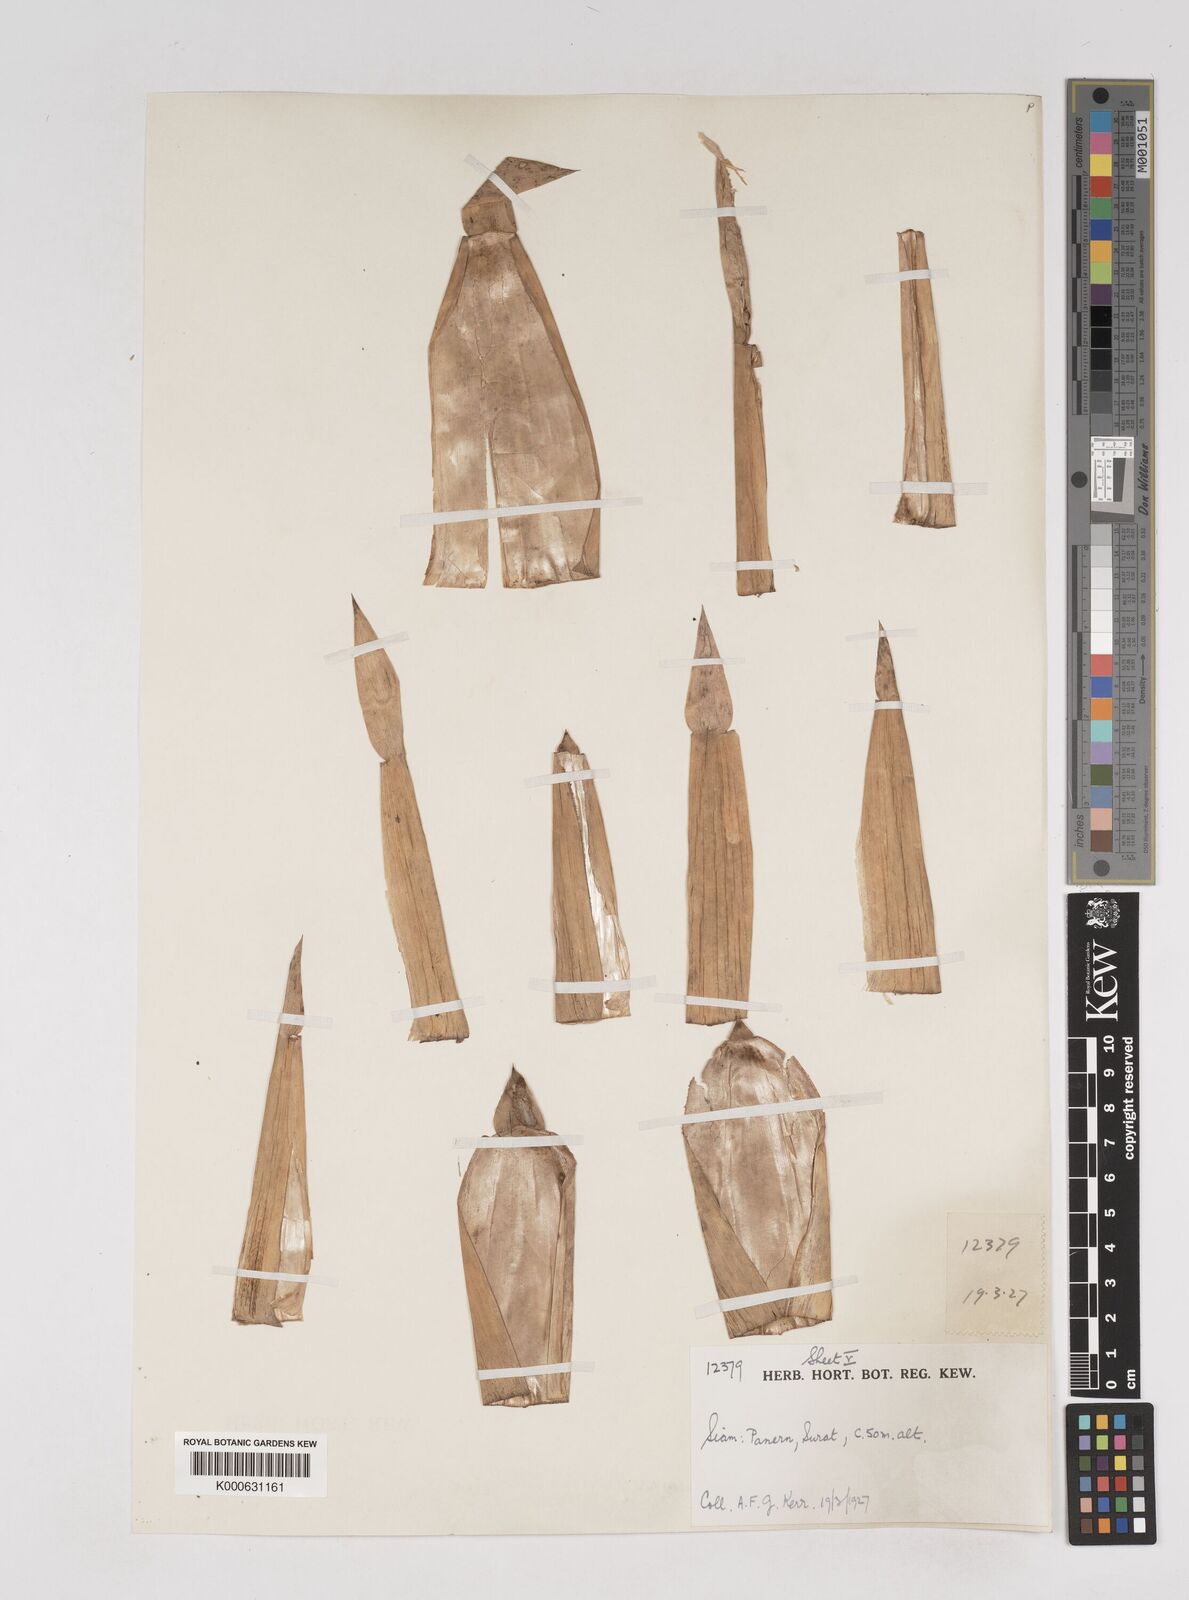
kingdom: Plantae
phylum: Tracheophyta
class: Liliopsida
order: Poales
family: Poaceae
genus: Gigantochloa
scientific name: Gigantochloa
